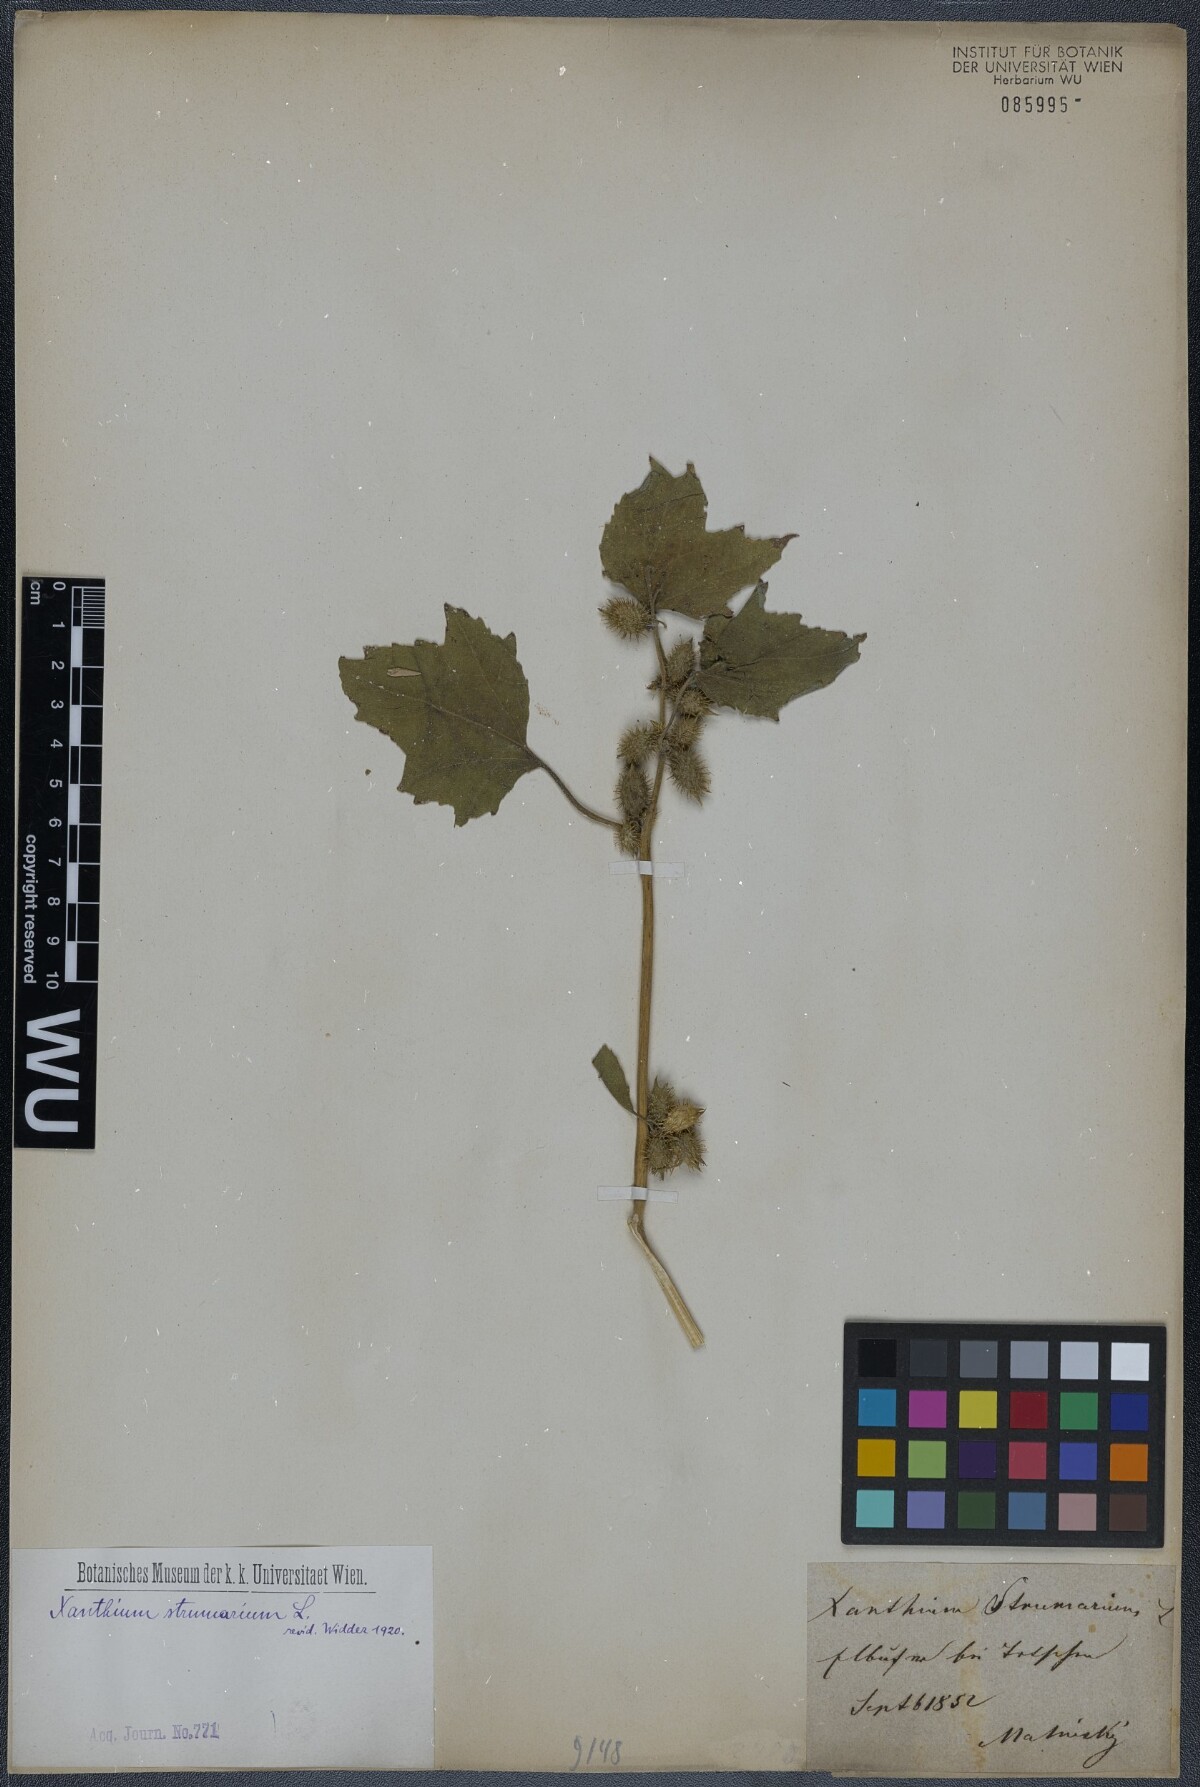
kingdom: Plantae
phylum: Tracheophyta
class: Magnoliopsida
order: Asterales
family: Asteraceae
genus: Xanthium
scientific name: Xanthium strumarium
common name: Rough cocklebur
